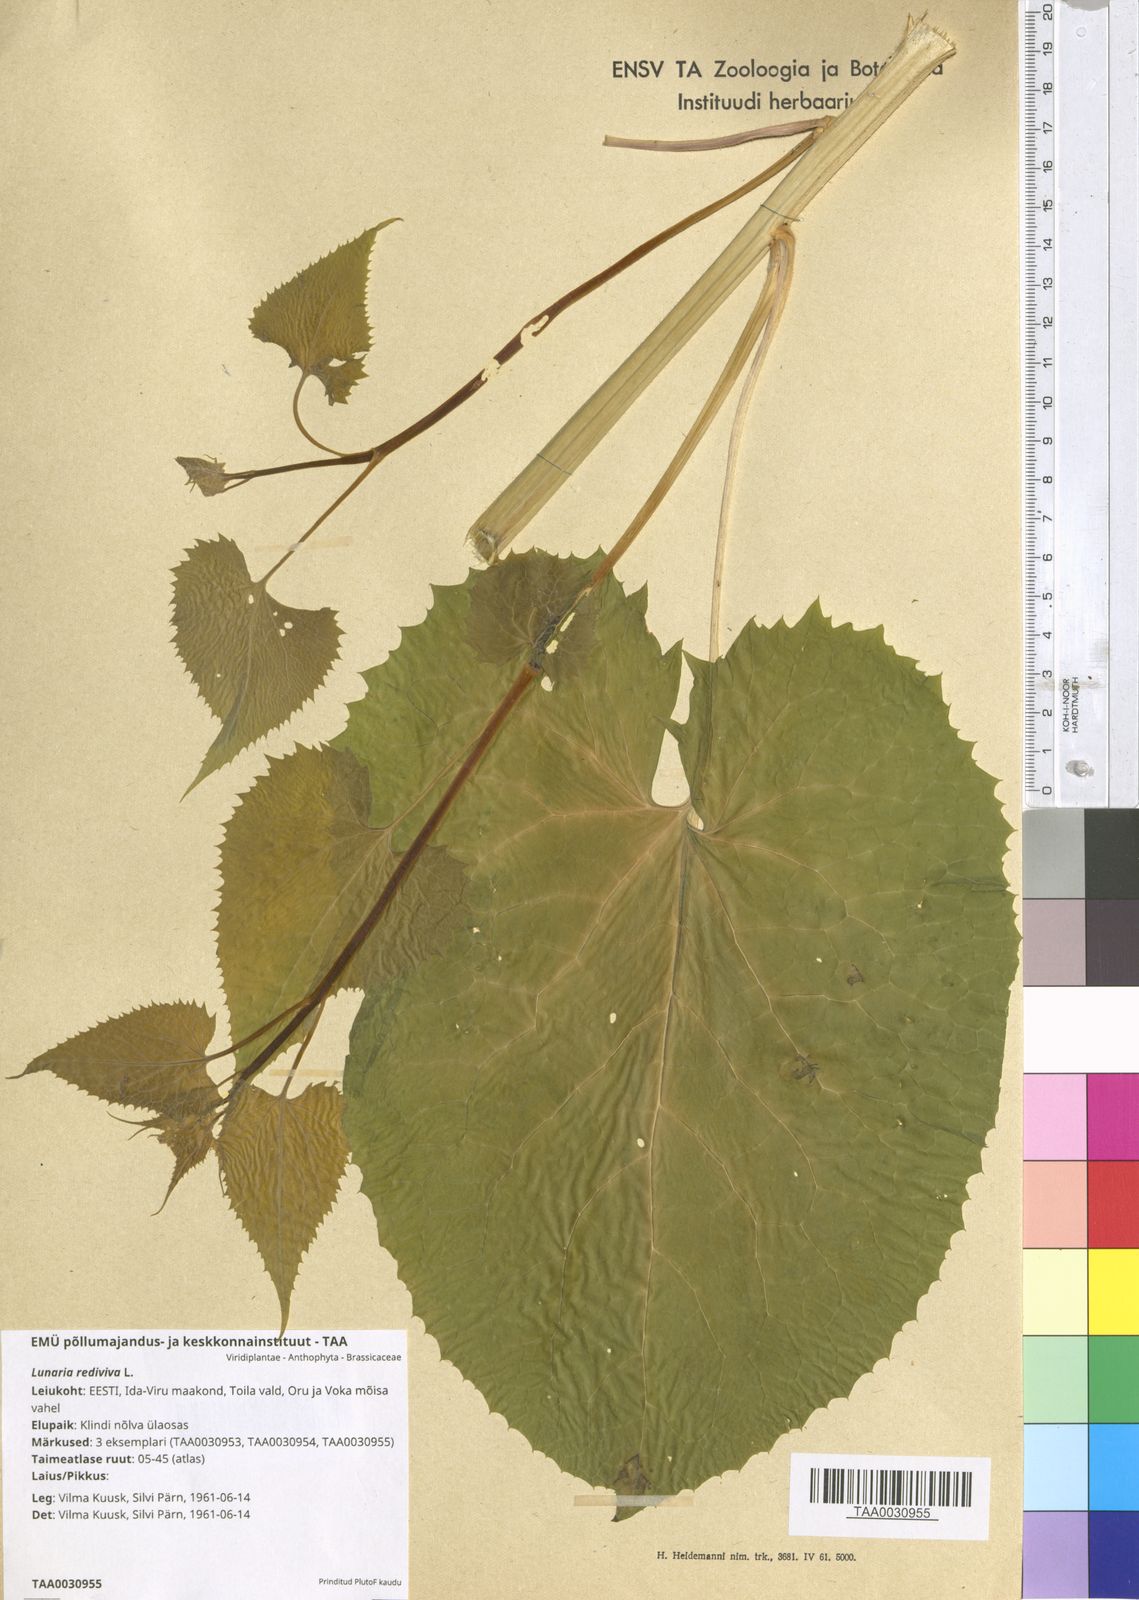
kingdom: Plantae
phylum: Tracheophyta
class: Magnoliopsida
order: Brassicales
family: Brassicaceae
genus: Lunaria
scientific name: Lunaria rediviva
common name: Perennial honesty
